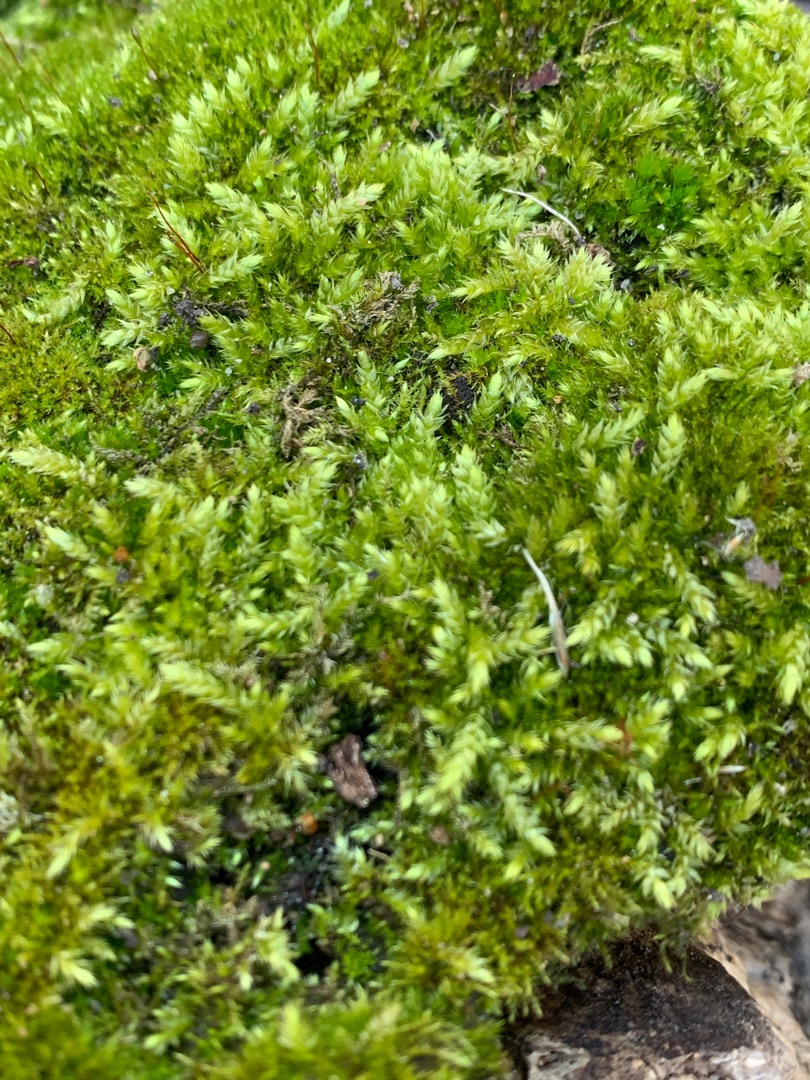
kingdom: Plantae
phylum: Bryophyta
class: Bryopsida
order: Hypnales
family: Brachytheciaceae
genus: Brachythecium
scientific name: Brachythecium rutabulum
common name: Almindelig kortkapsel
